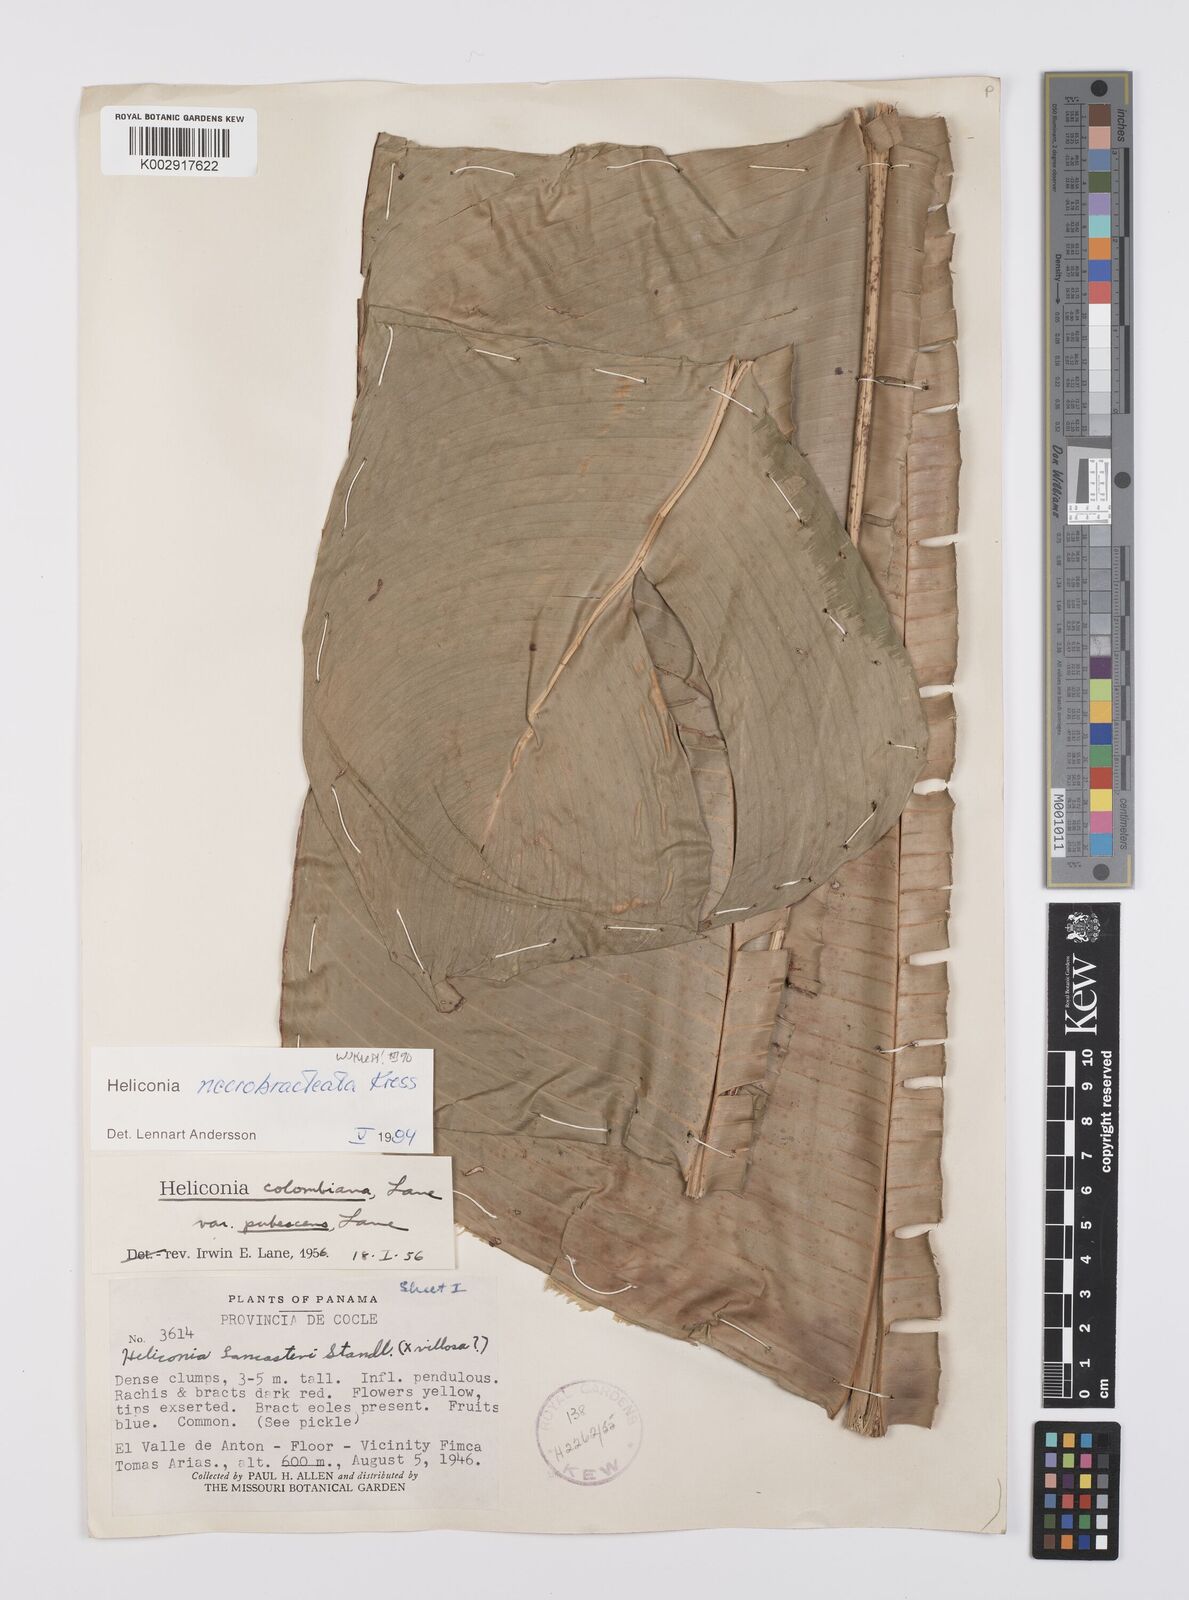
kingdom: Plantae
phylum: Tracheophyta
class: Liliopsida
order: Zingiberales
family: Heliconiaceae
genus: Heliconia
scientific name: Heliconia necrobracteata
